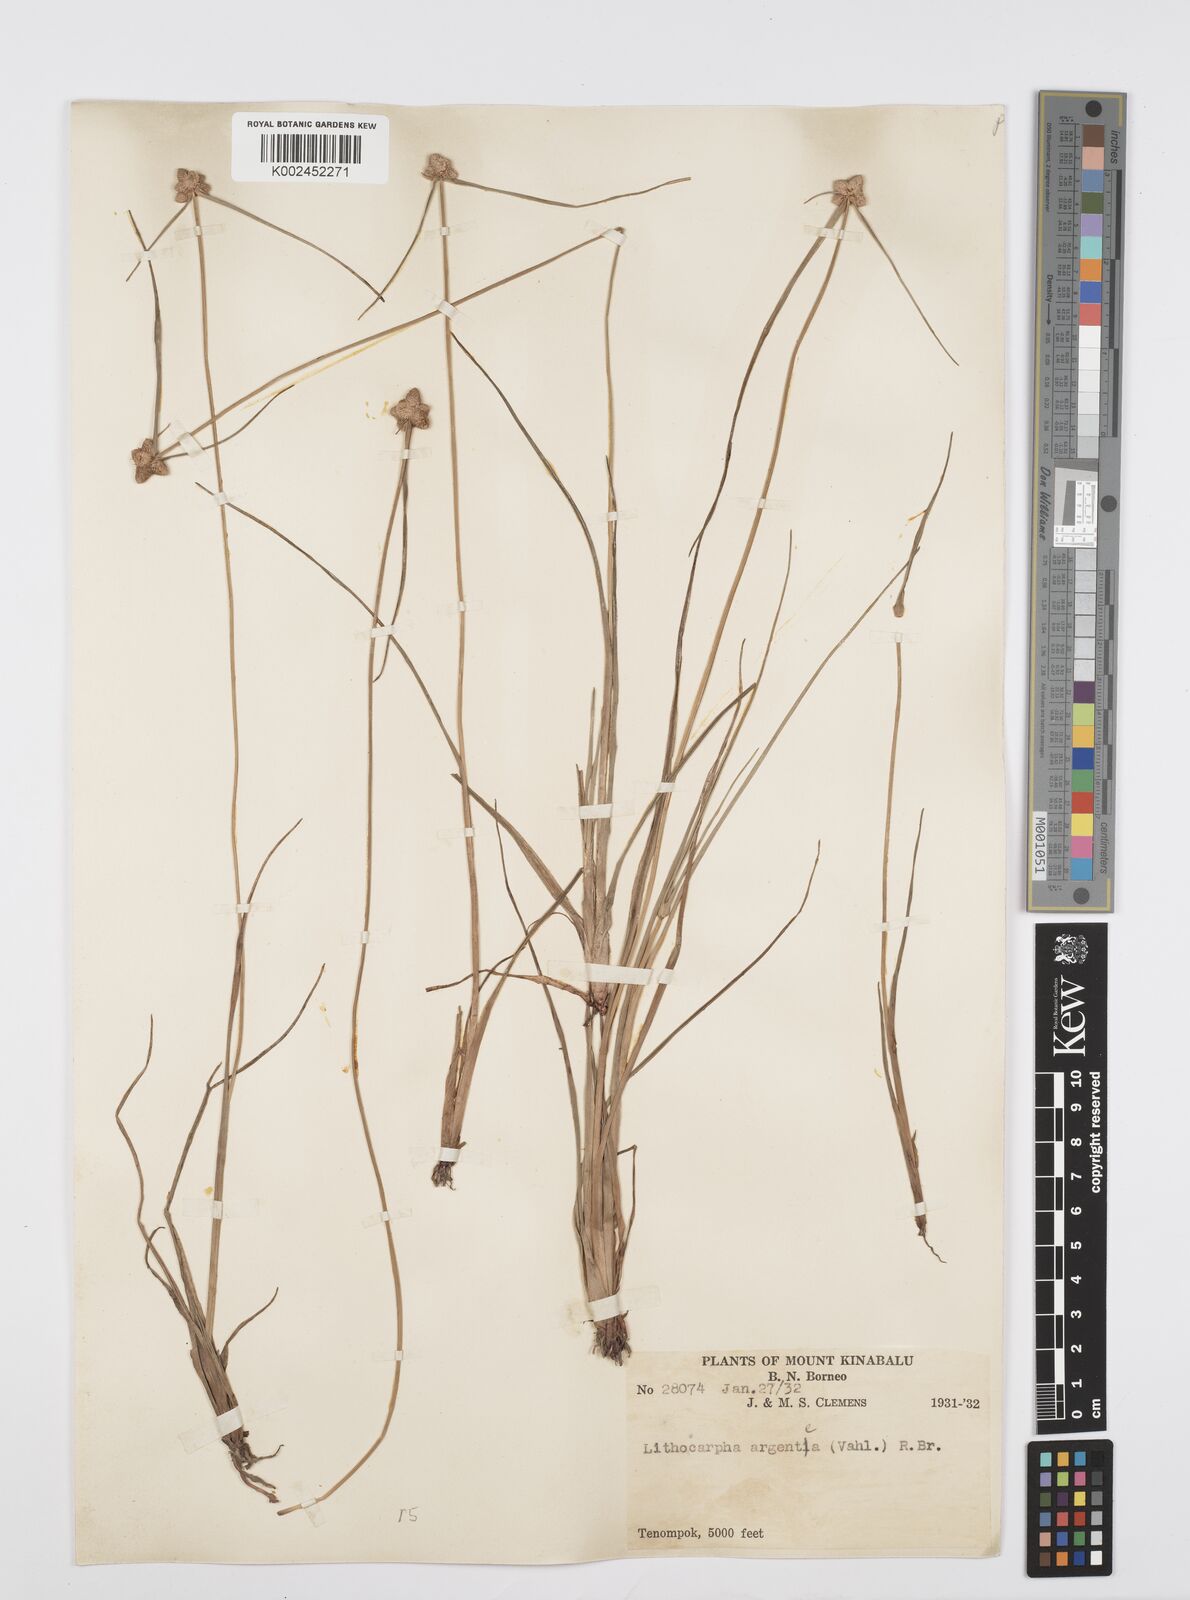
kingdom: Plantae
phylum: Tracheophyta
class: Liliopsida
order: Poales
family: Cyperaceae
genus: Cyperus
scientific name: Cyperus
